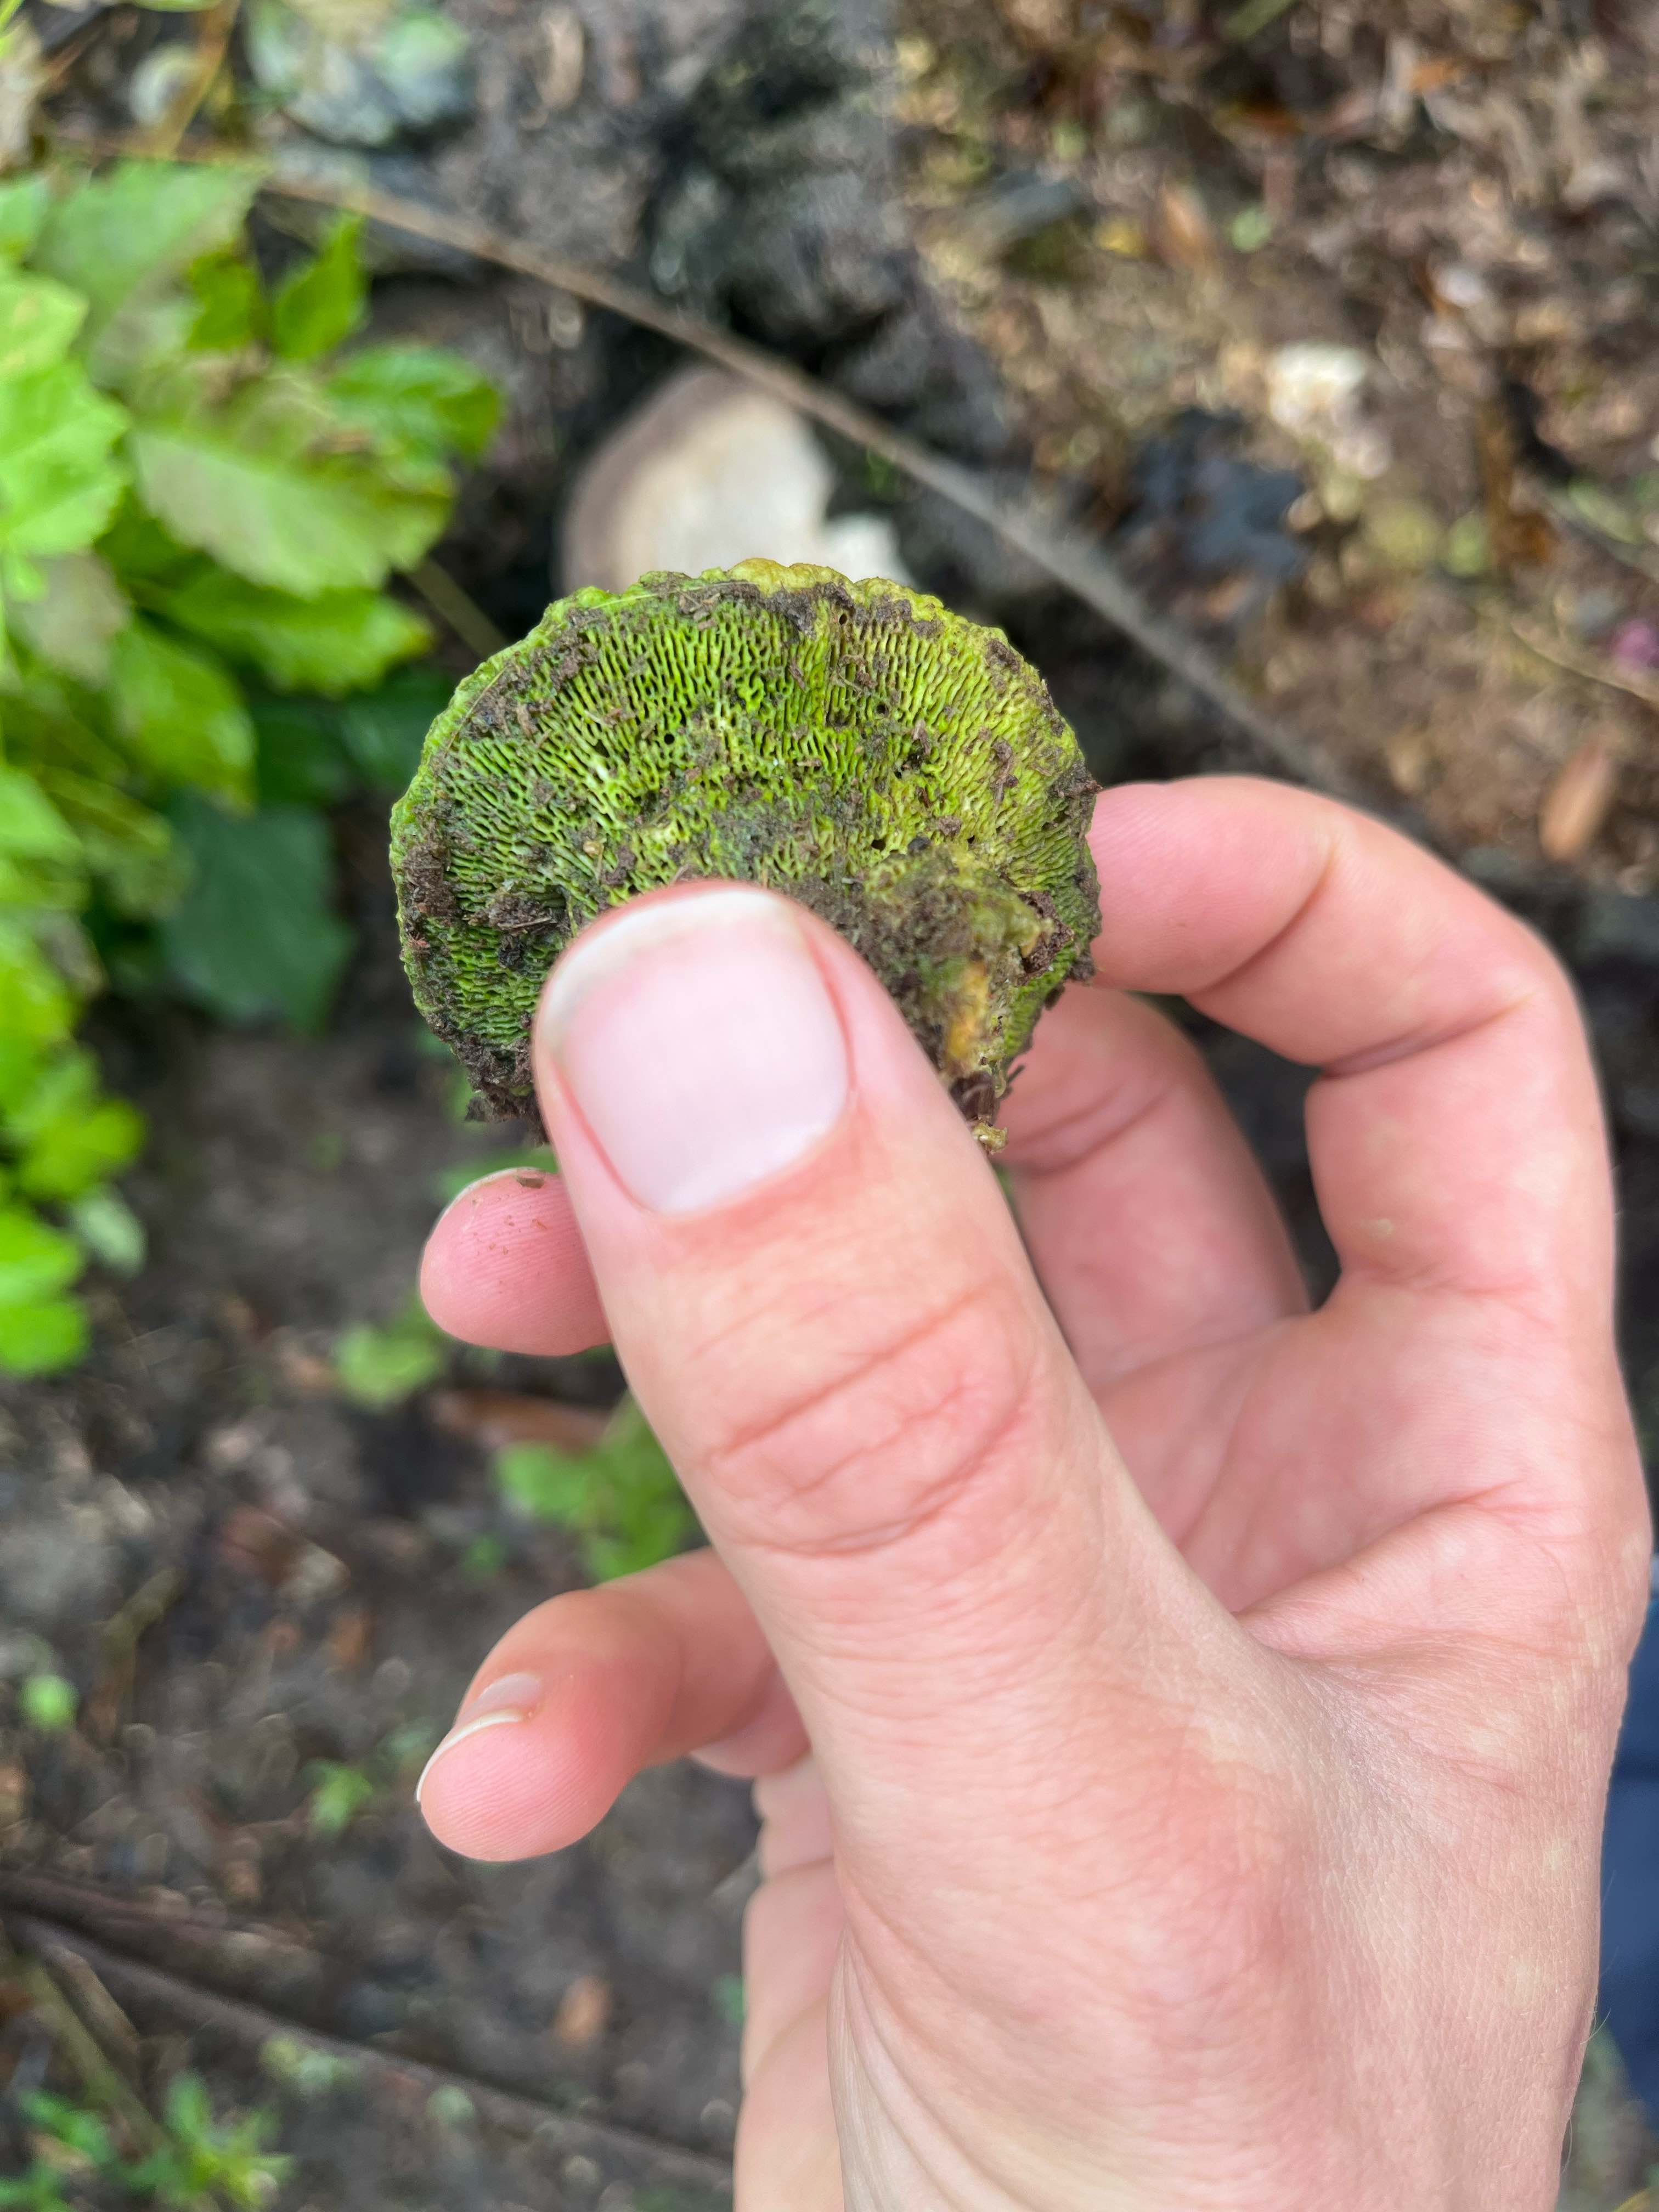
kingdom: Fungi
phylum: Basidiomycota
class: Agaricomycetes
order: Polyporales
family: Polyporaceae
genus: Trametes
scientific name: Trametes gibbosa
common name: puklet læderporesvamp
